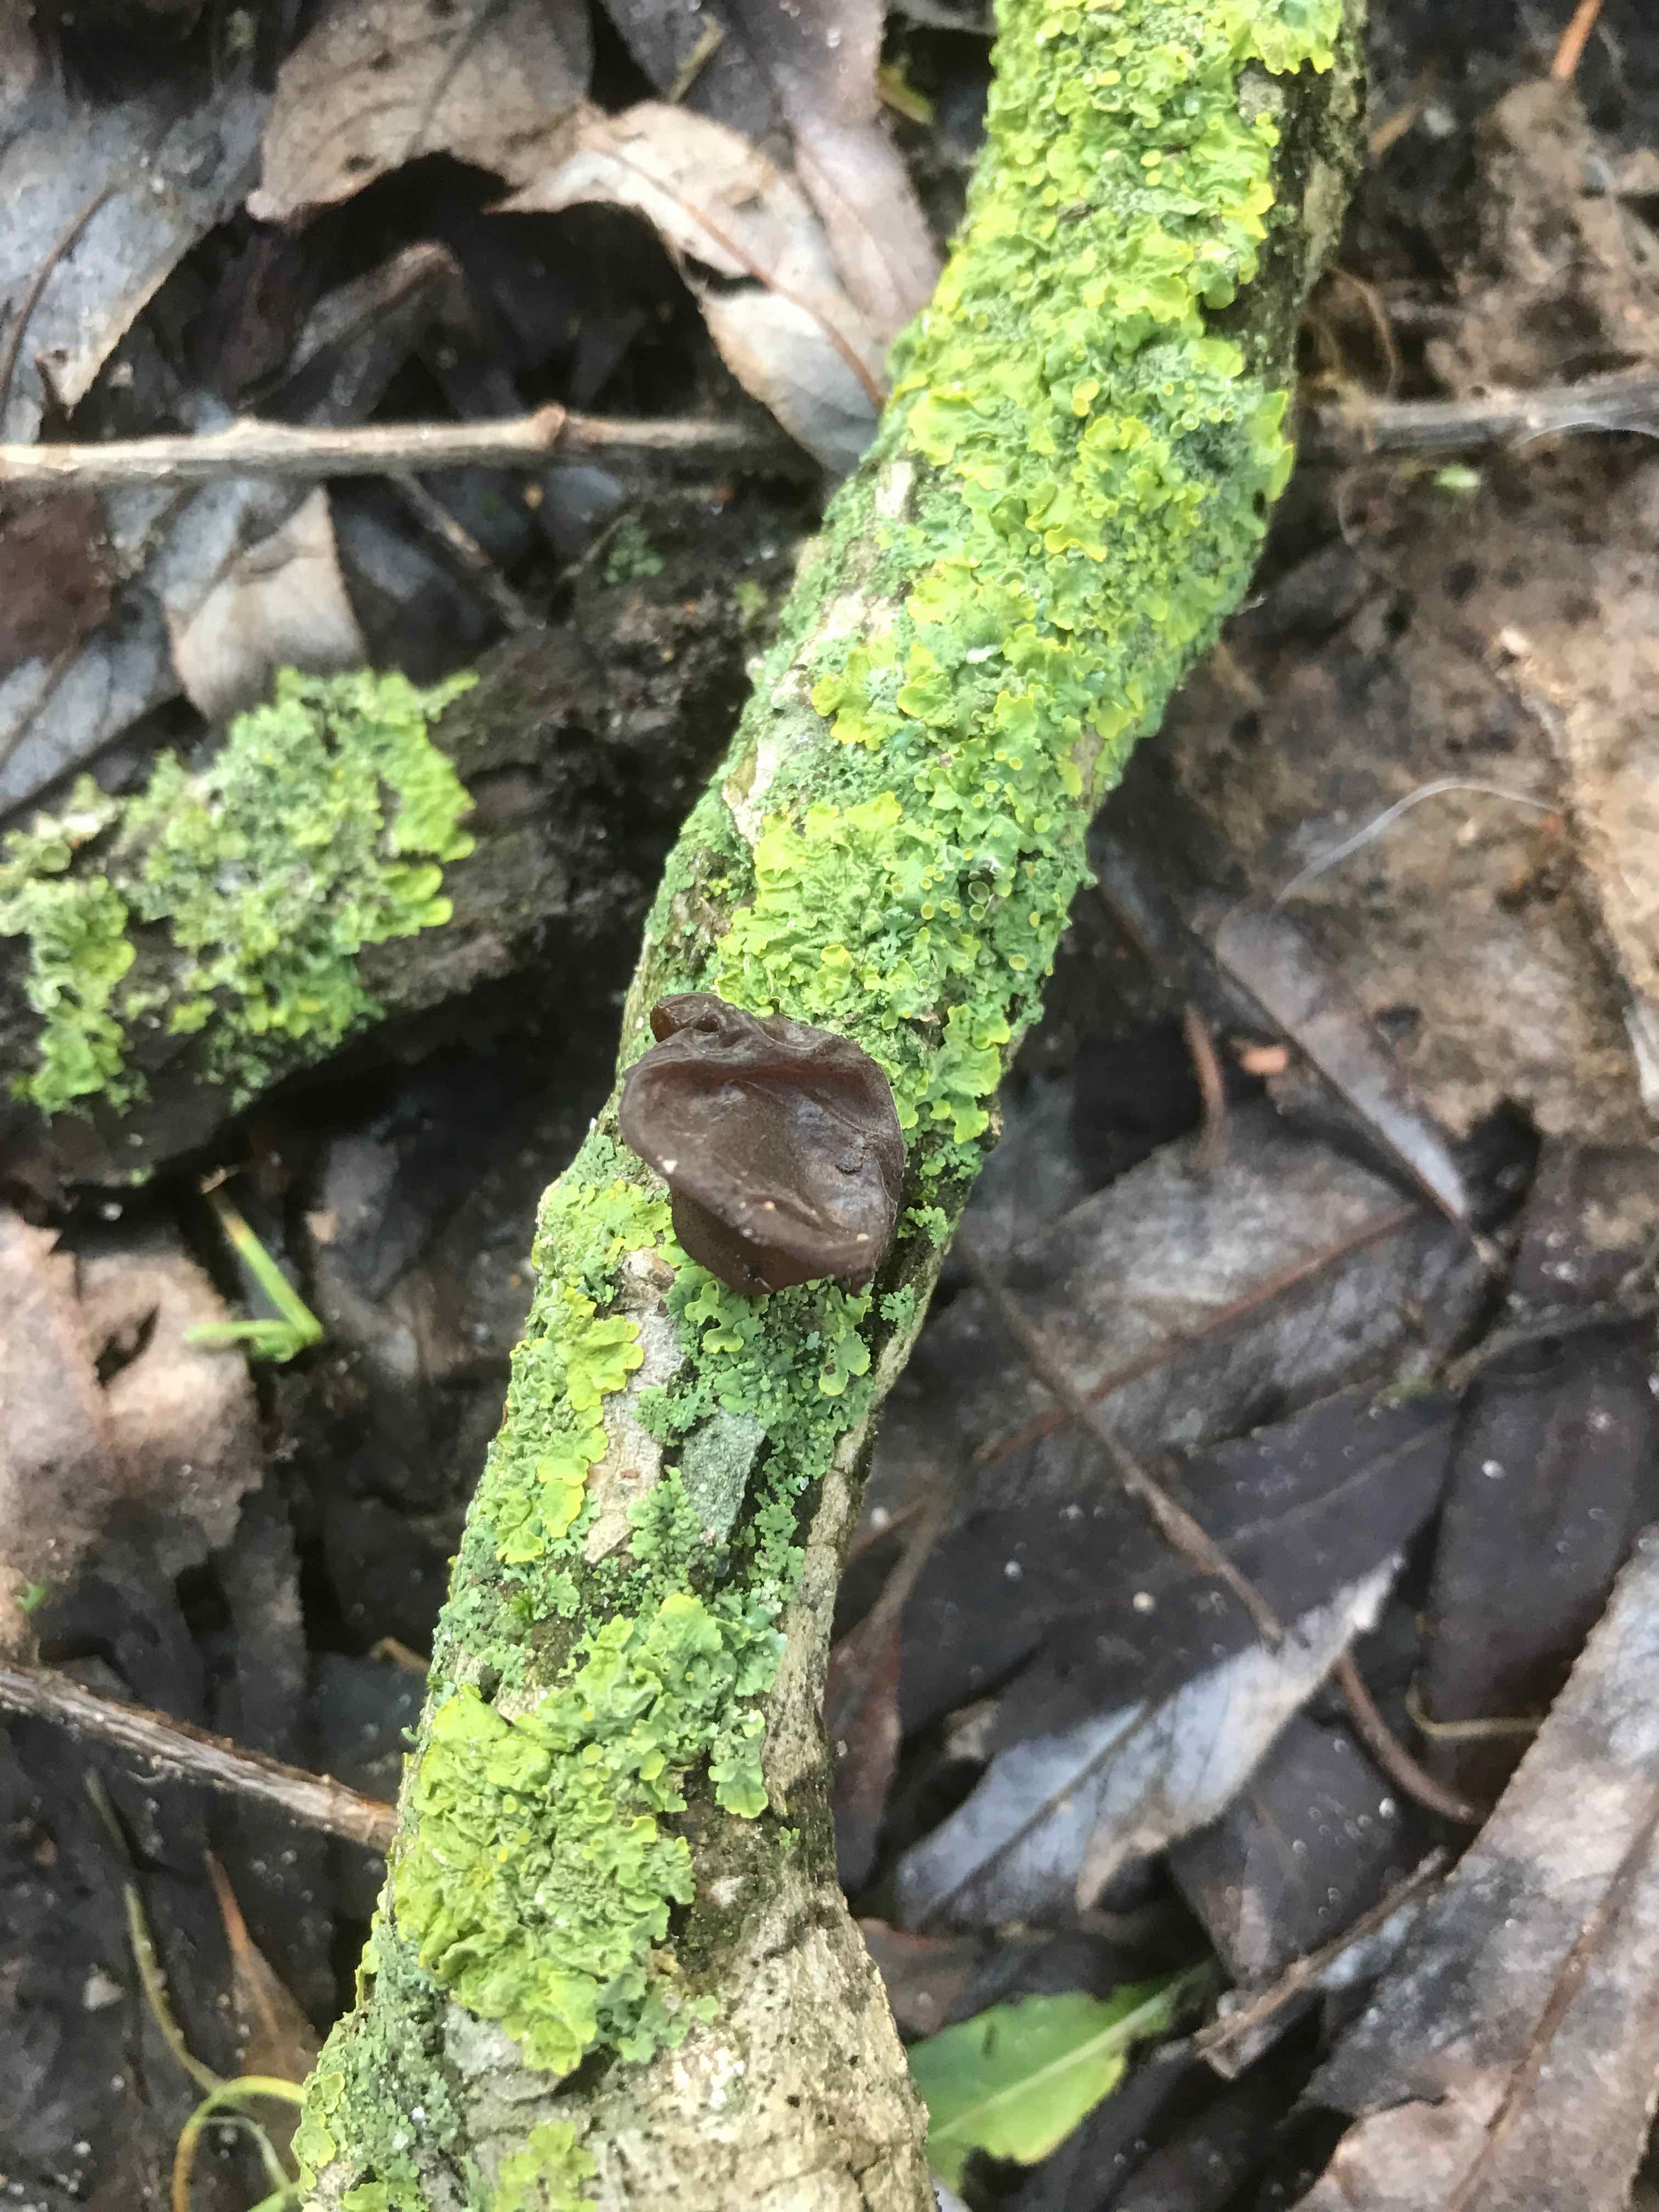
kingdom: Fungi
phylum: Basidiomycota
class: Agaricomycetes
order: Auriculariales
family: Auriculariaceae
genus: Exidia
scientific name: Exidia recisa
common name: pile-bævretop
